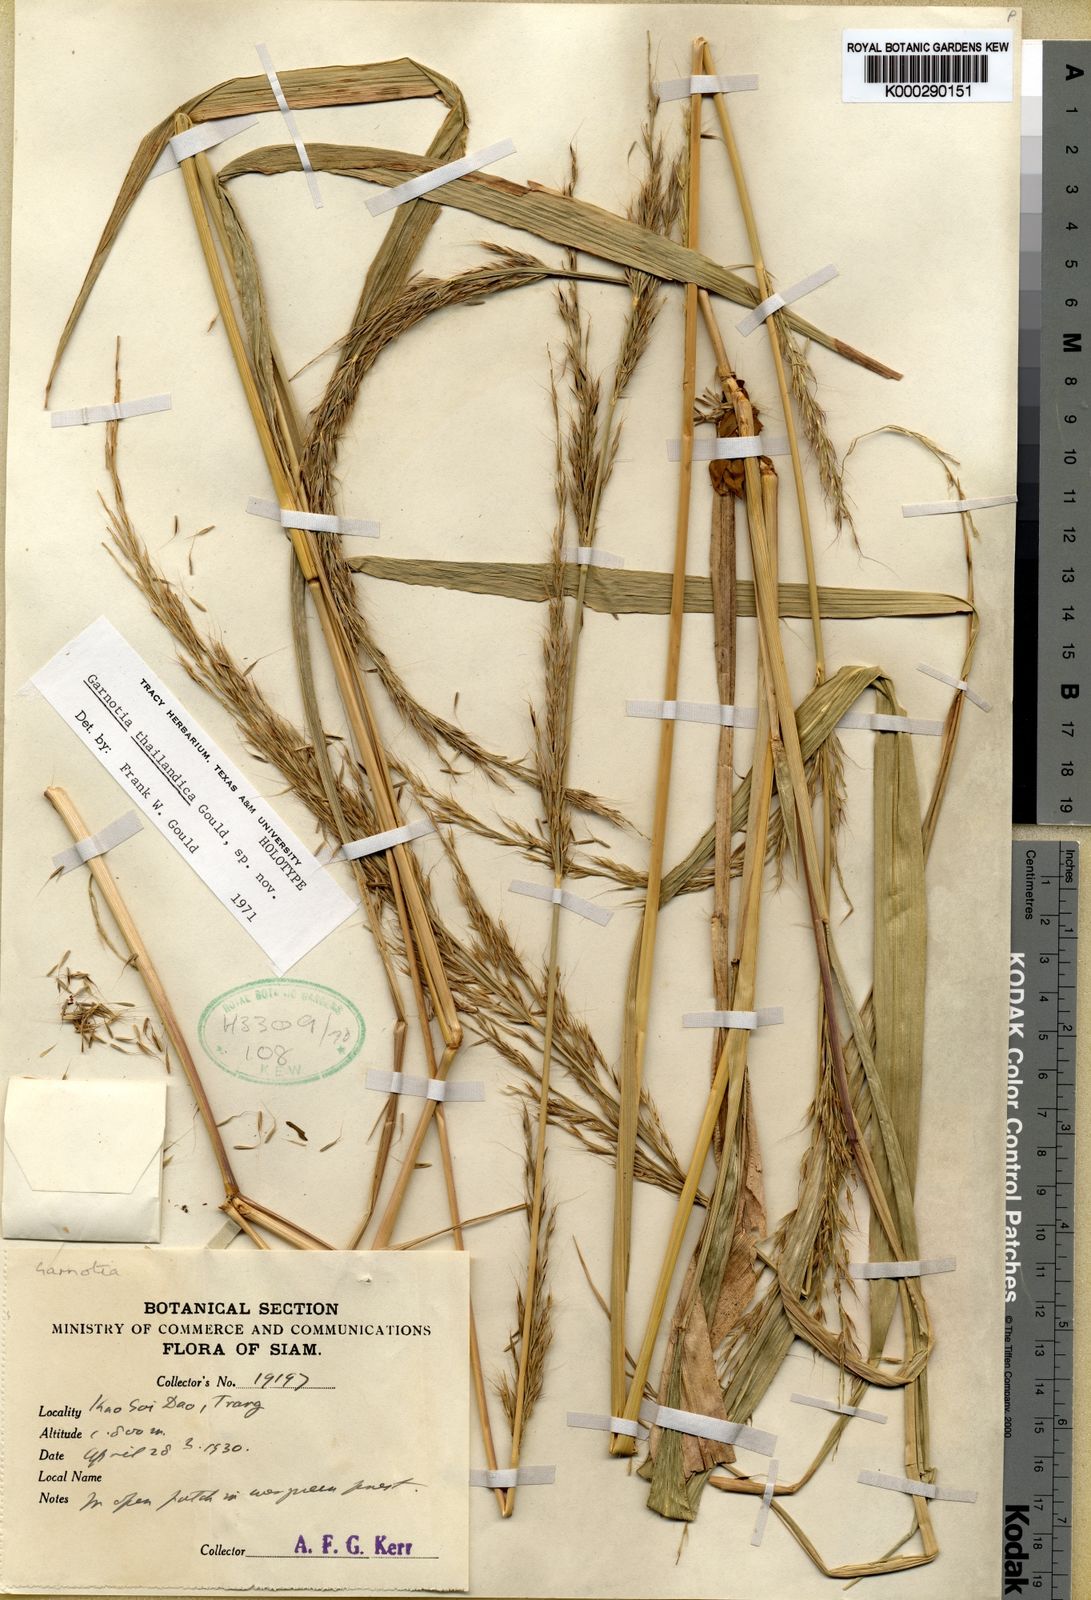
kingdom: Plantae
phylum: Tracheophyta
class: Liliopsida
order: Poales
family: Poaceae
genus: Garnotia
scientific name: Garnotia thailandica
